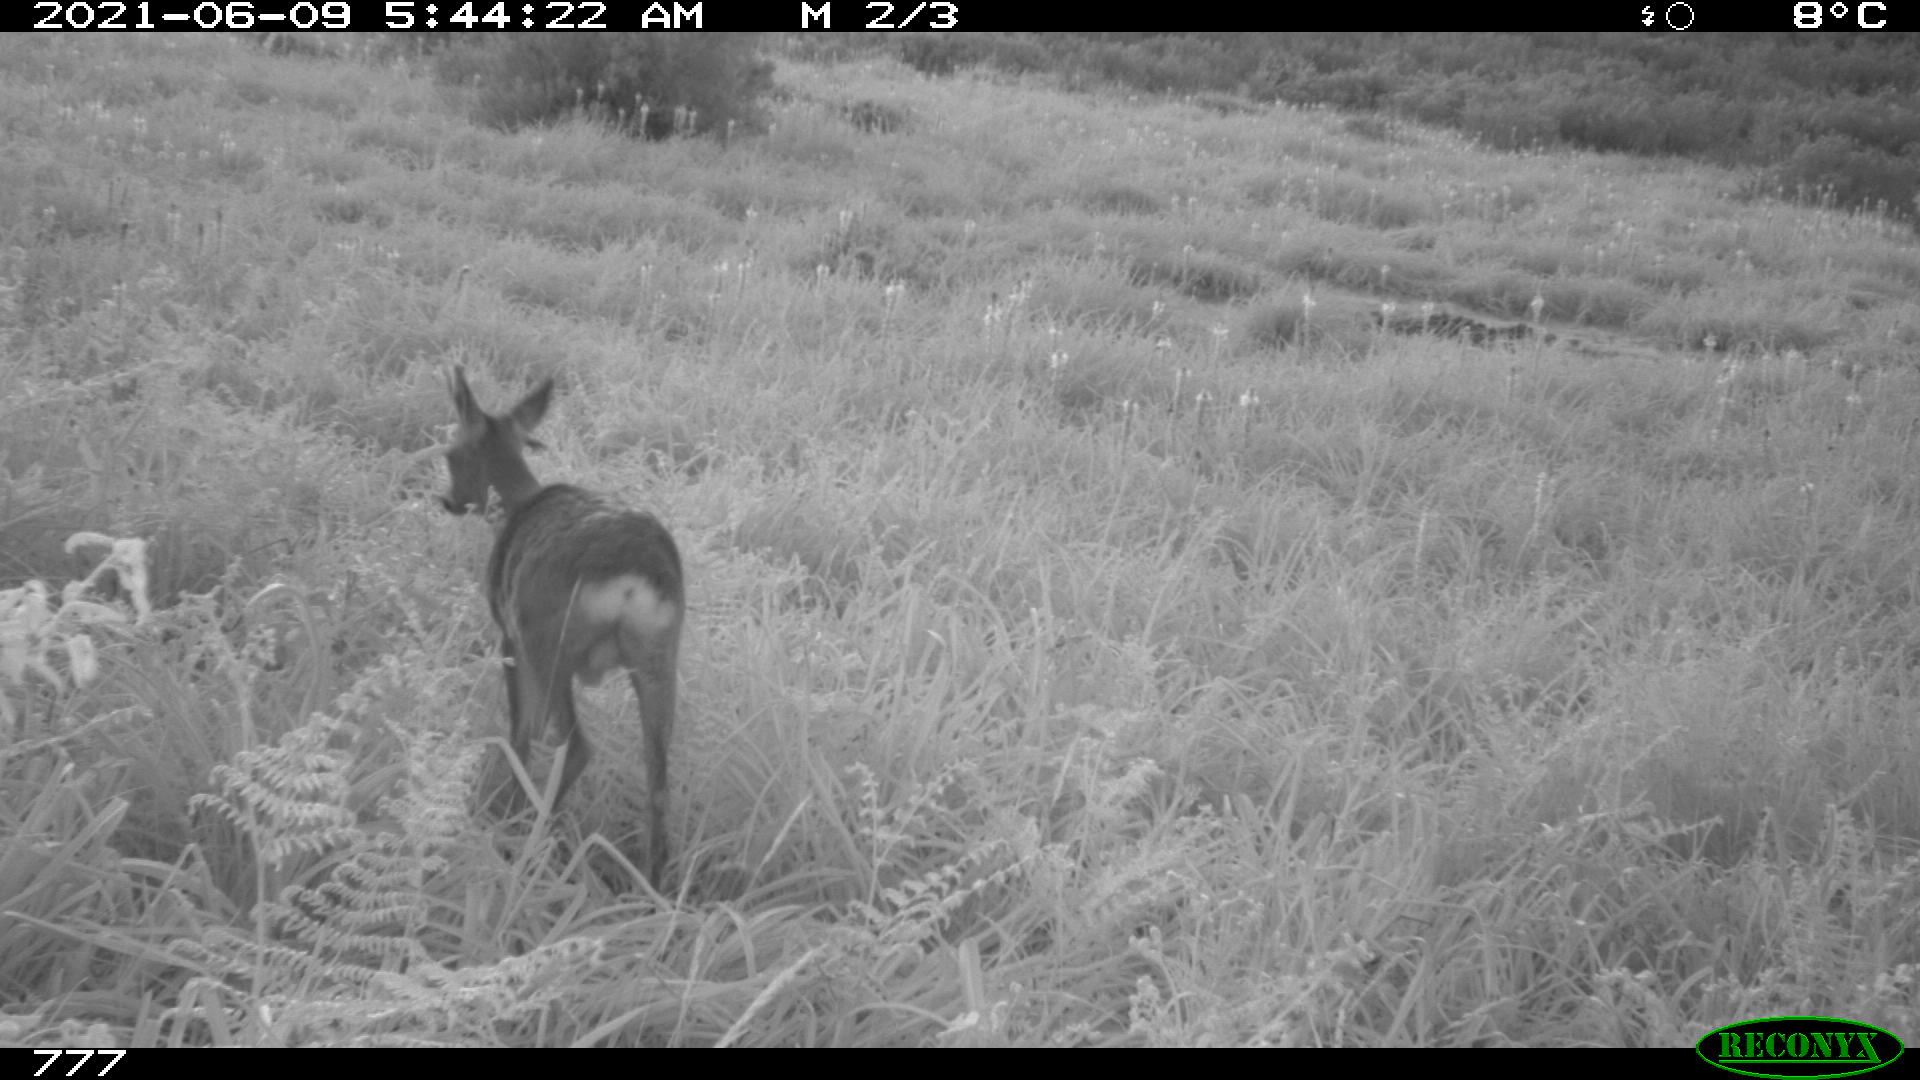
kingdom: Animalia
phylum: Chordata
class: Mammalia
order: Artiodactyla
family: Cervidae
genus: Capreolus
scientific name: Capreolus capreolus
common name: Western roe deer
